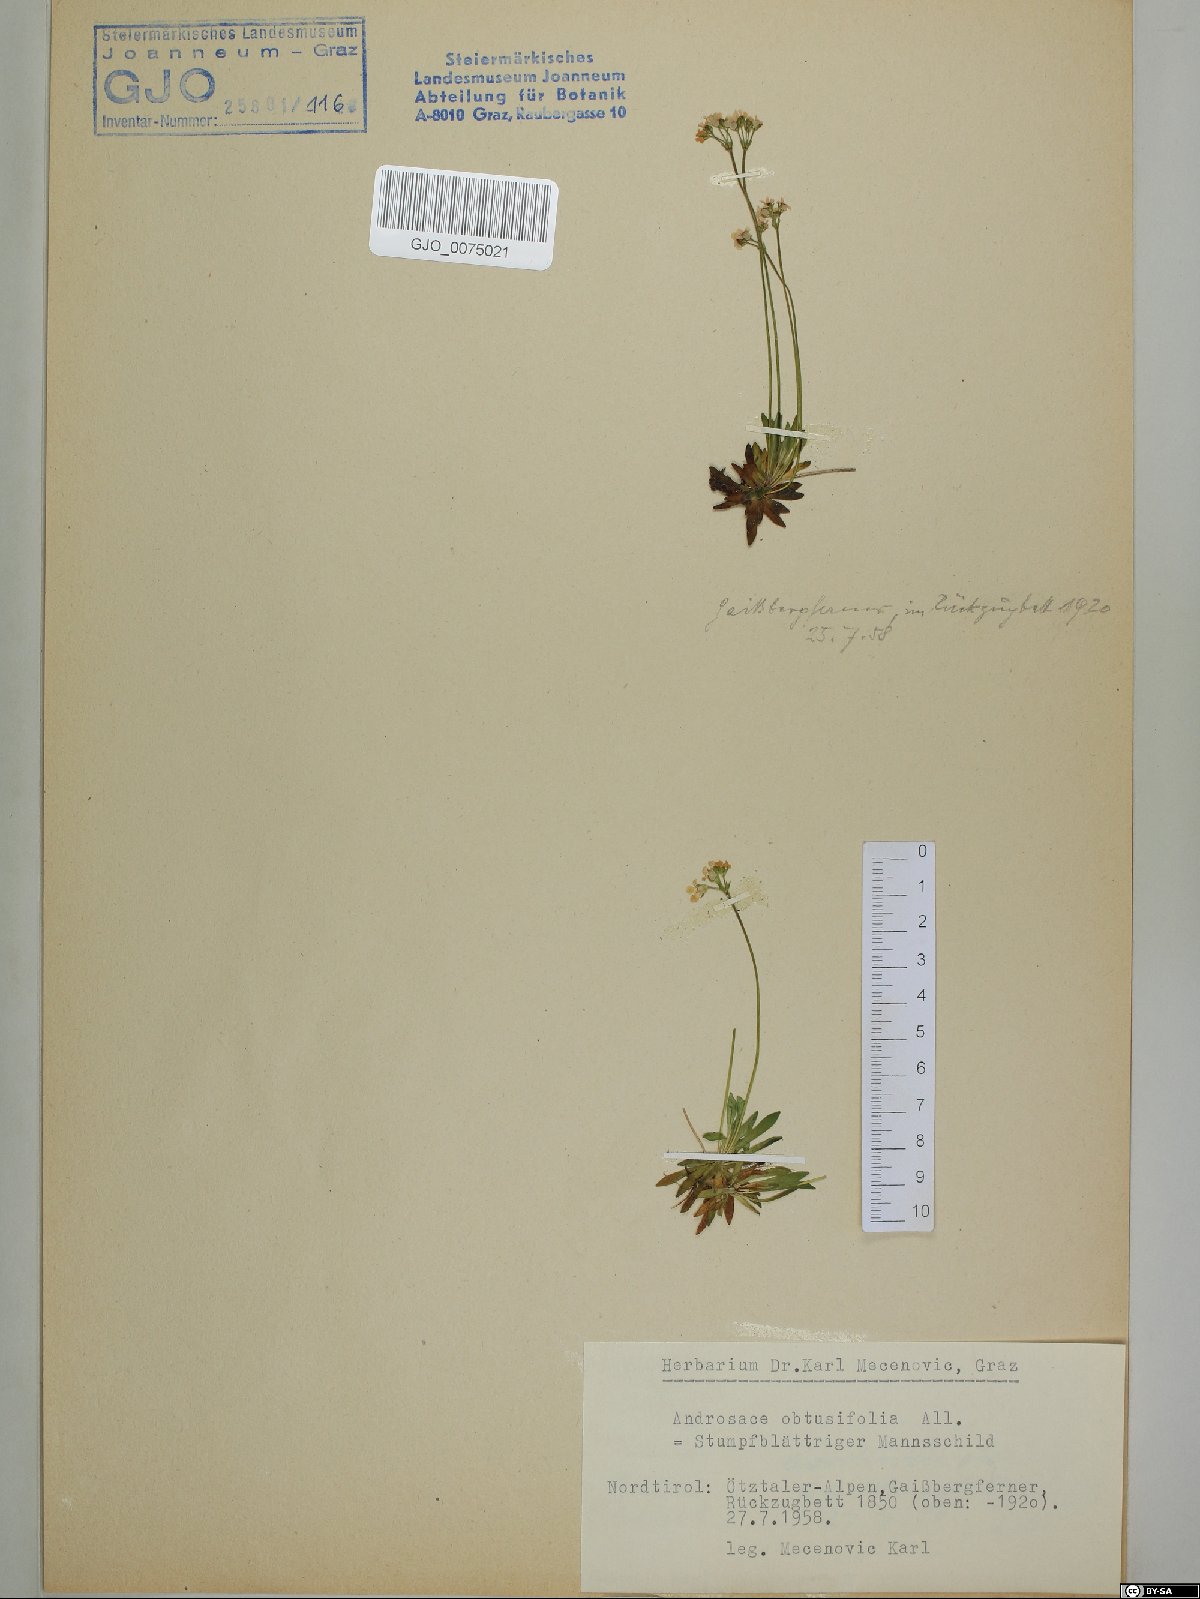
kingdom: Plantae
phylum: Tracheophyta
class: Magnoliopsida
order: Ericales
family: Primulaceae
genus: Androsace
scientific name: Androsace obtusifolia
